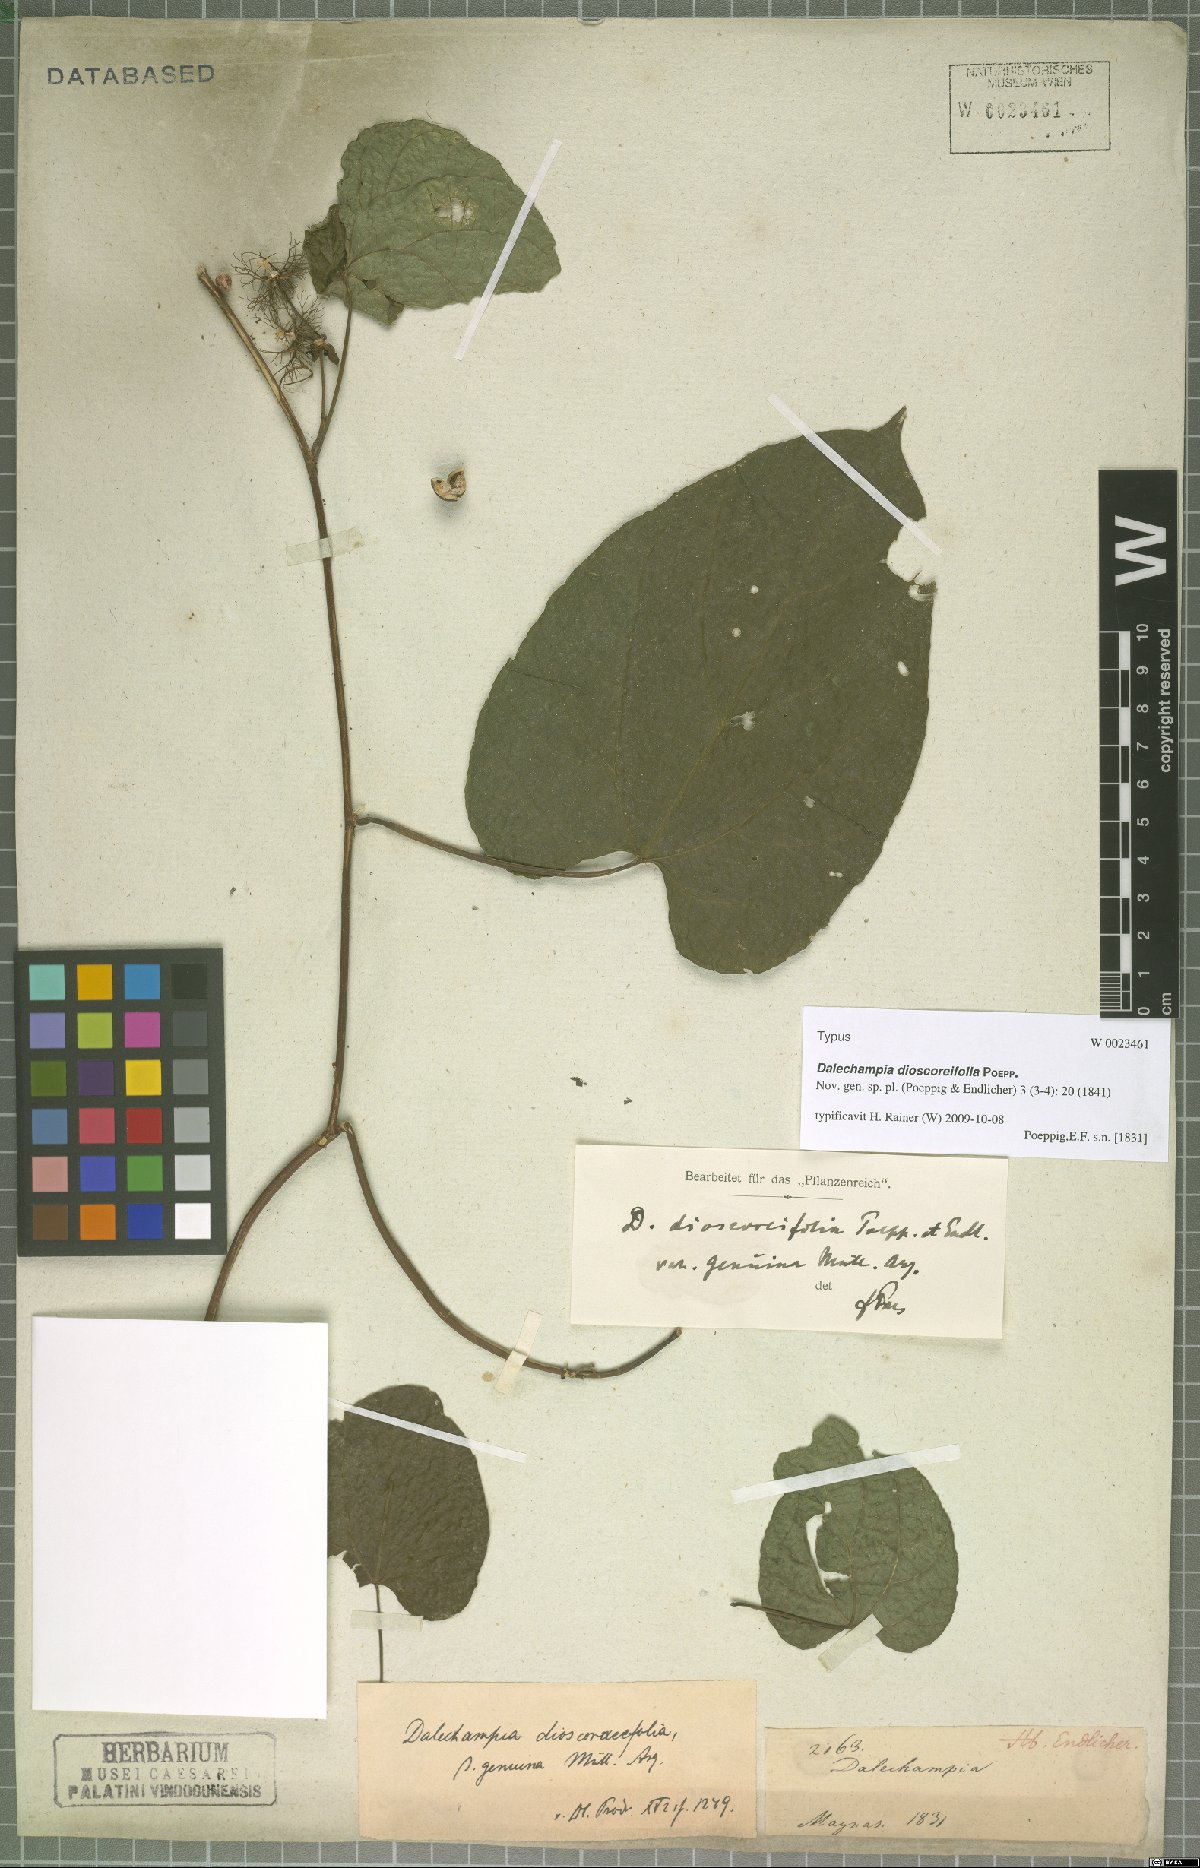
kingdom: Plantae
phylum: Tracheophyta
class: Magnoliopsida
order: Malpighiales
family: Euphorbiaceae
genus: Dalechampia
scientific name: Dalechampia dioscoreifolia
